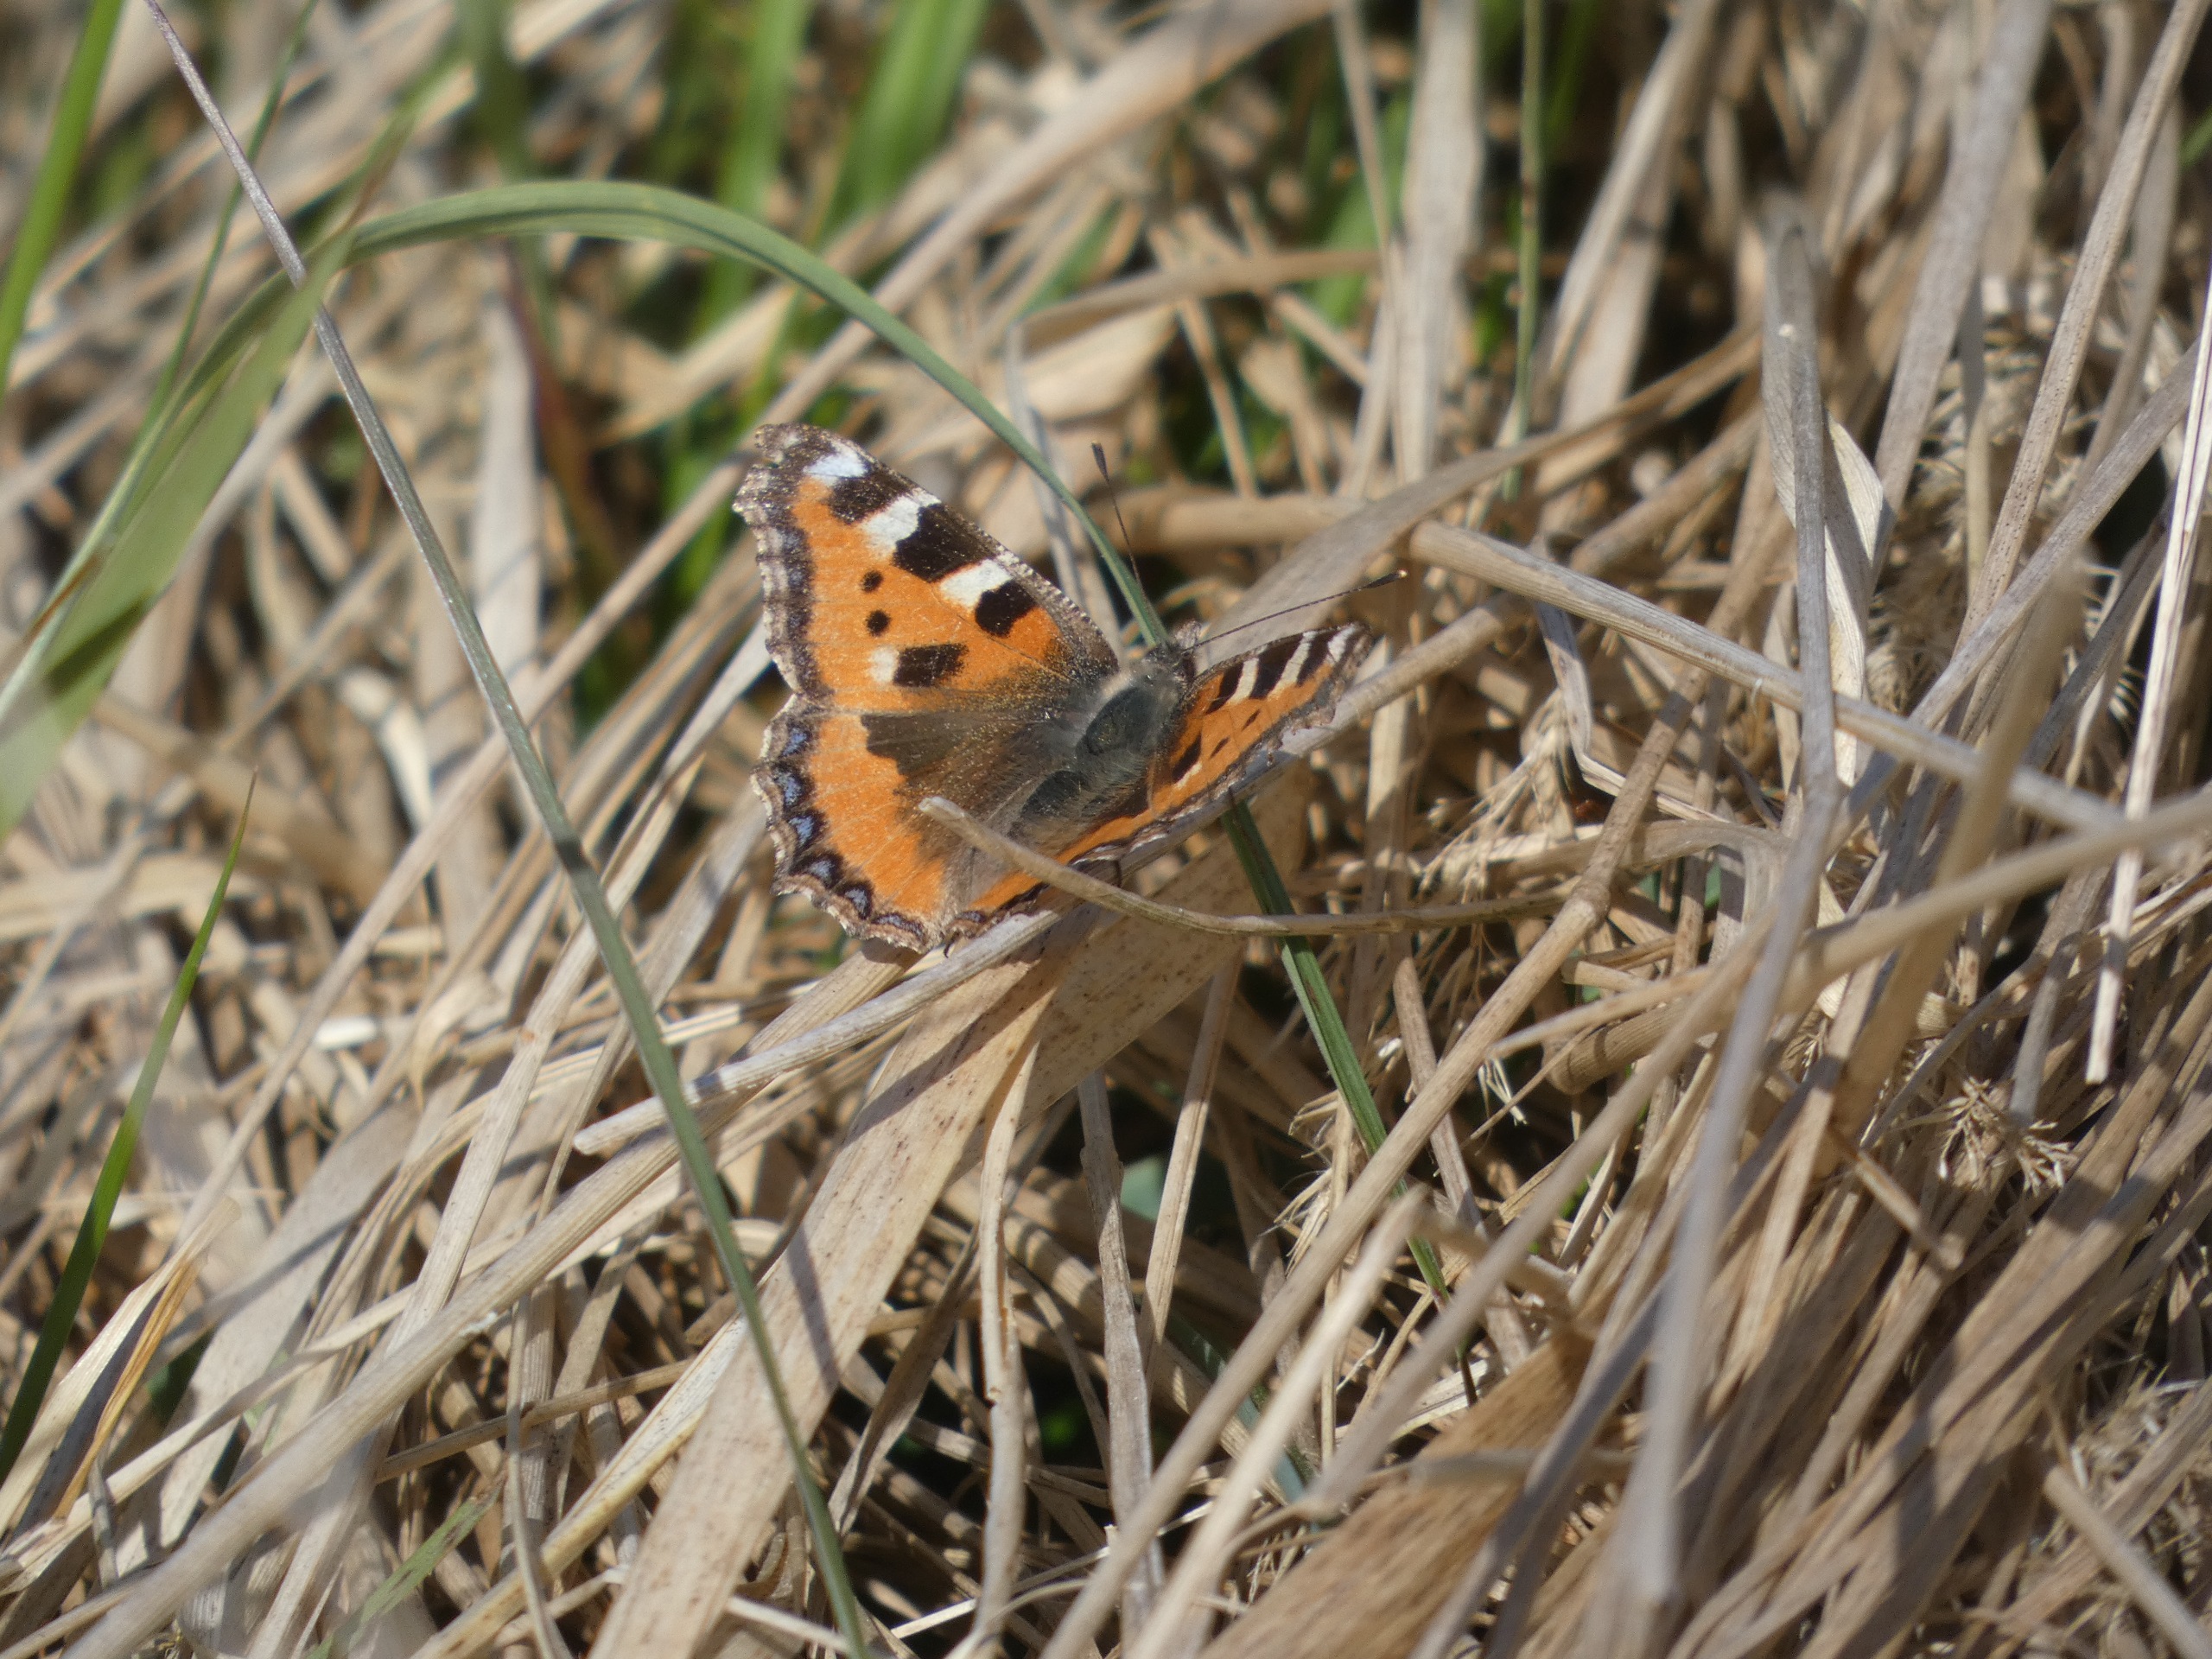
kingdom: Animalia
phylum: Arthropoda
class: Insecta
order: Lepidoptera
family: Nymphalidae
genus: Aglais
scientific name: Aglais urticae
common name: Nældens takvinge
